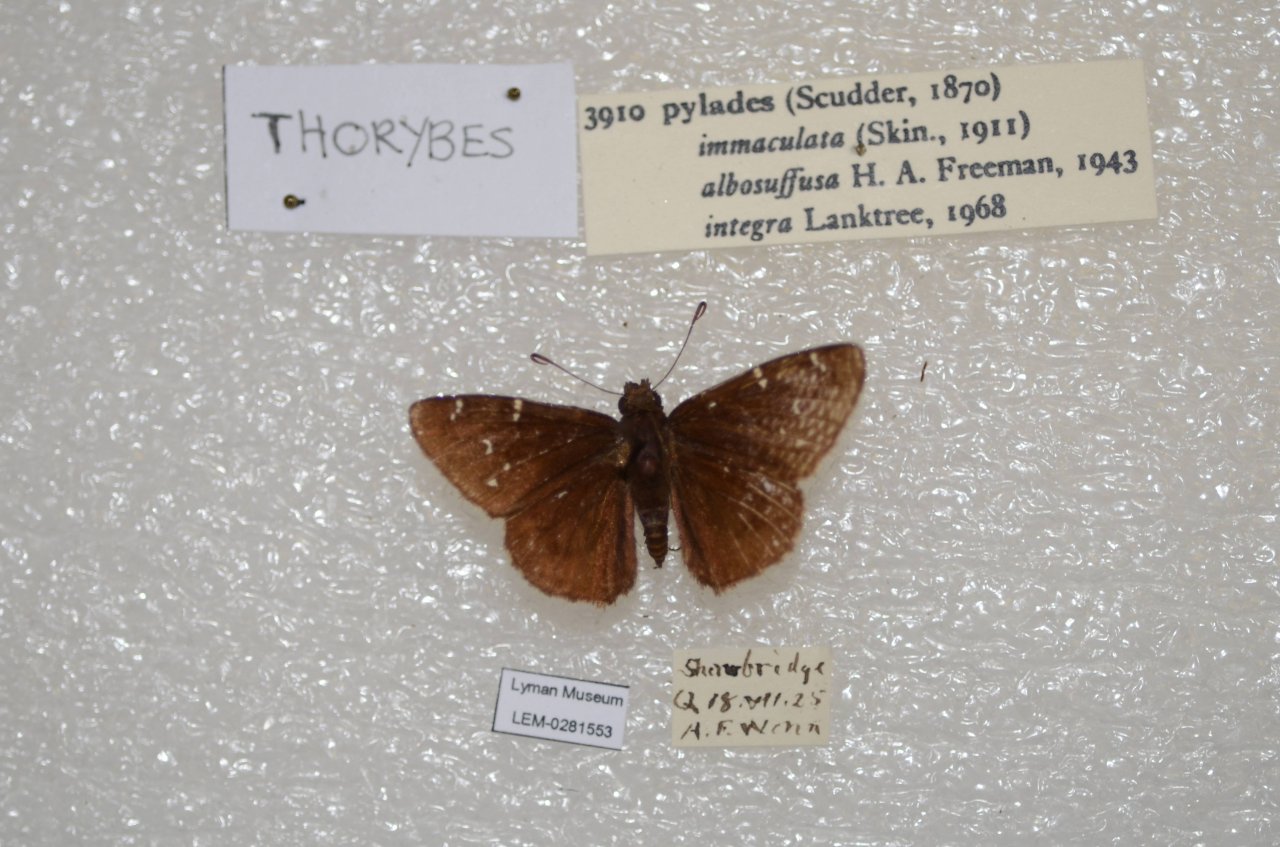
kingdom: Animalia
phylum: Arthropoda
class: Insecta
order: Lepidoptera
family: Hesperiidae
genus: Autochton
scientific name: Autochton
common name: Northern Cloudywing
